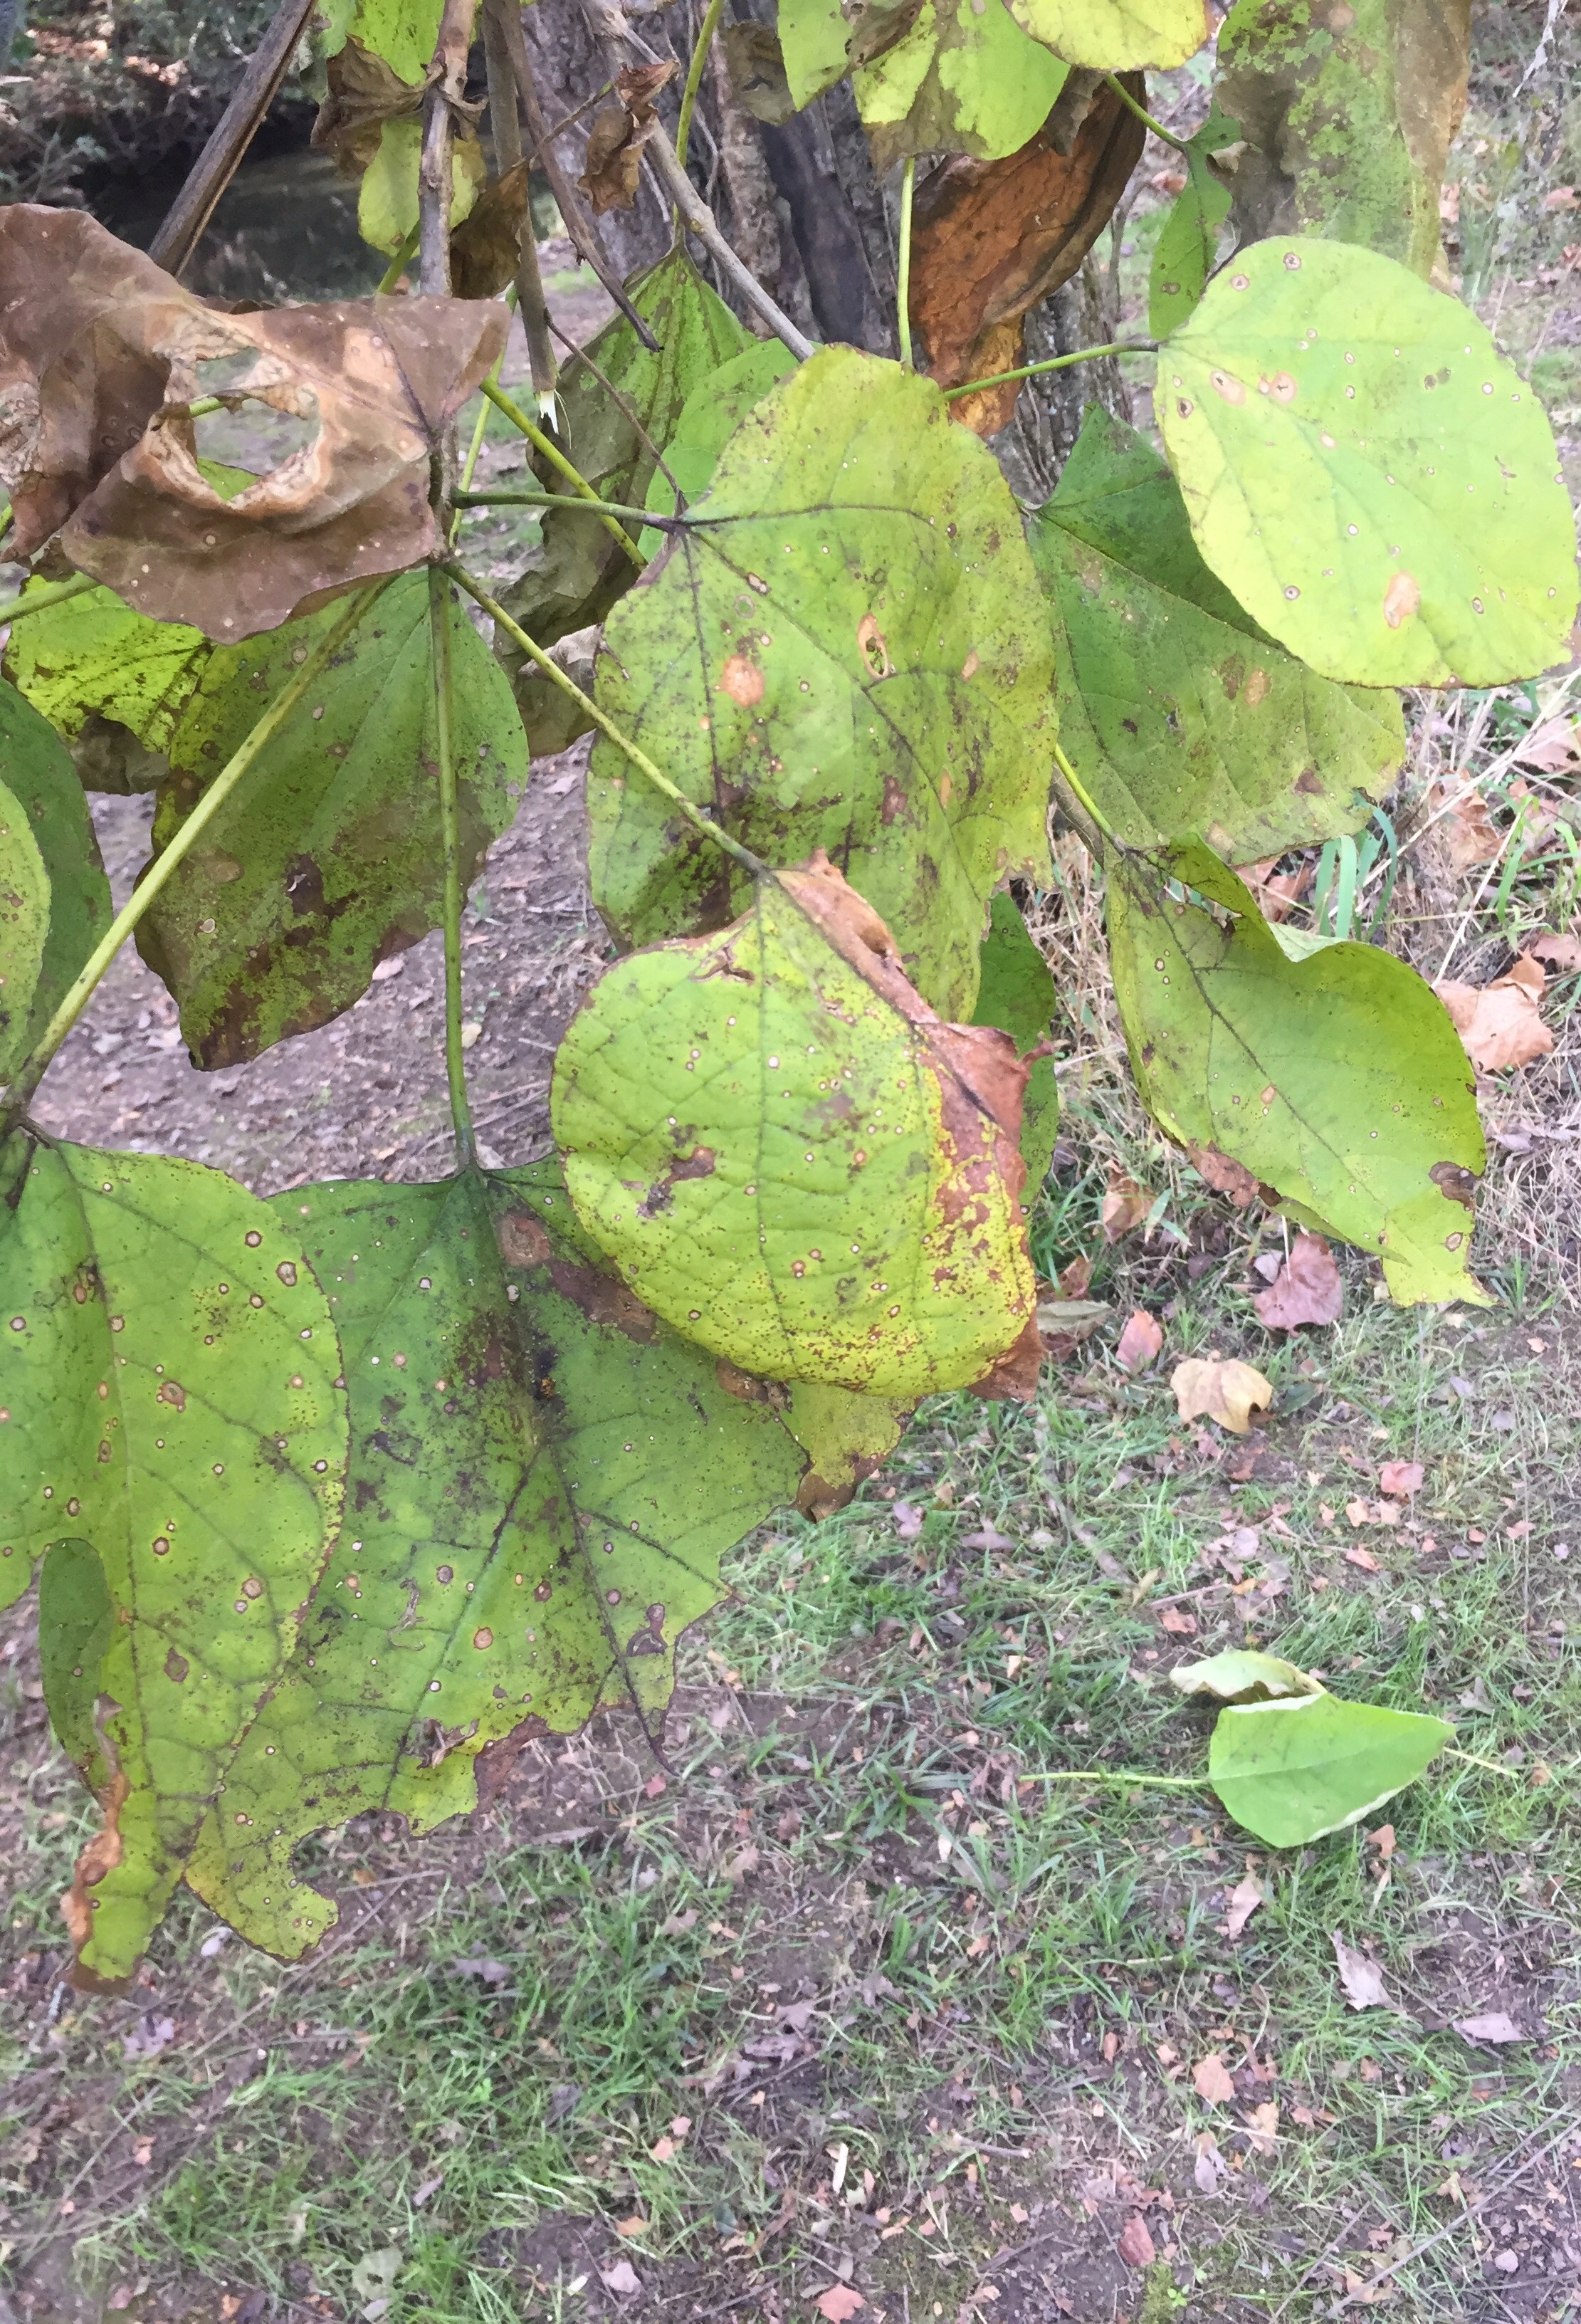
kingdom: Plantae
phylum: Tracheophyta
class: Magnoliopsida
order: Lamiales
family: Bignoniaceae
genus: Catalpa
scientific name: Catalpa bignonioides
